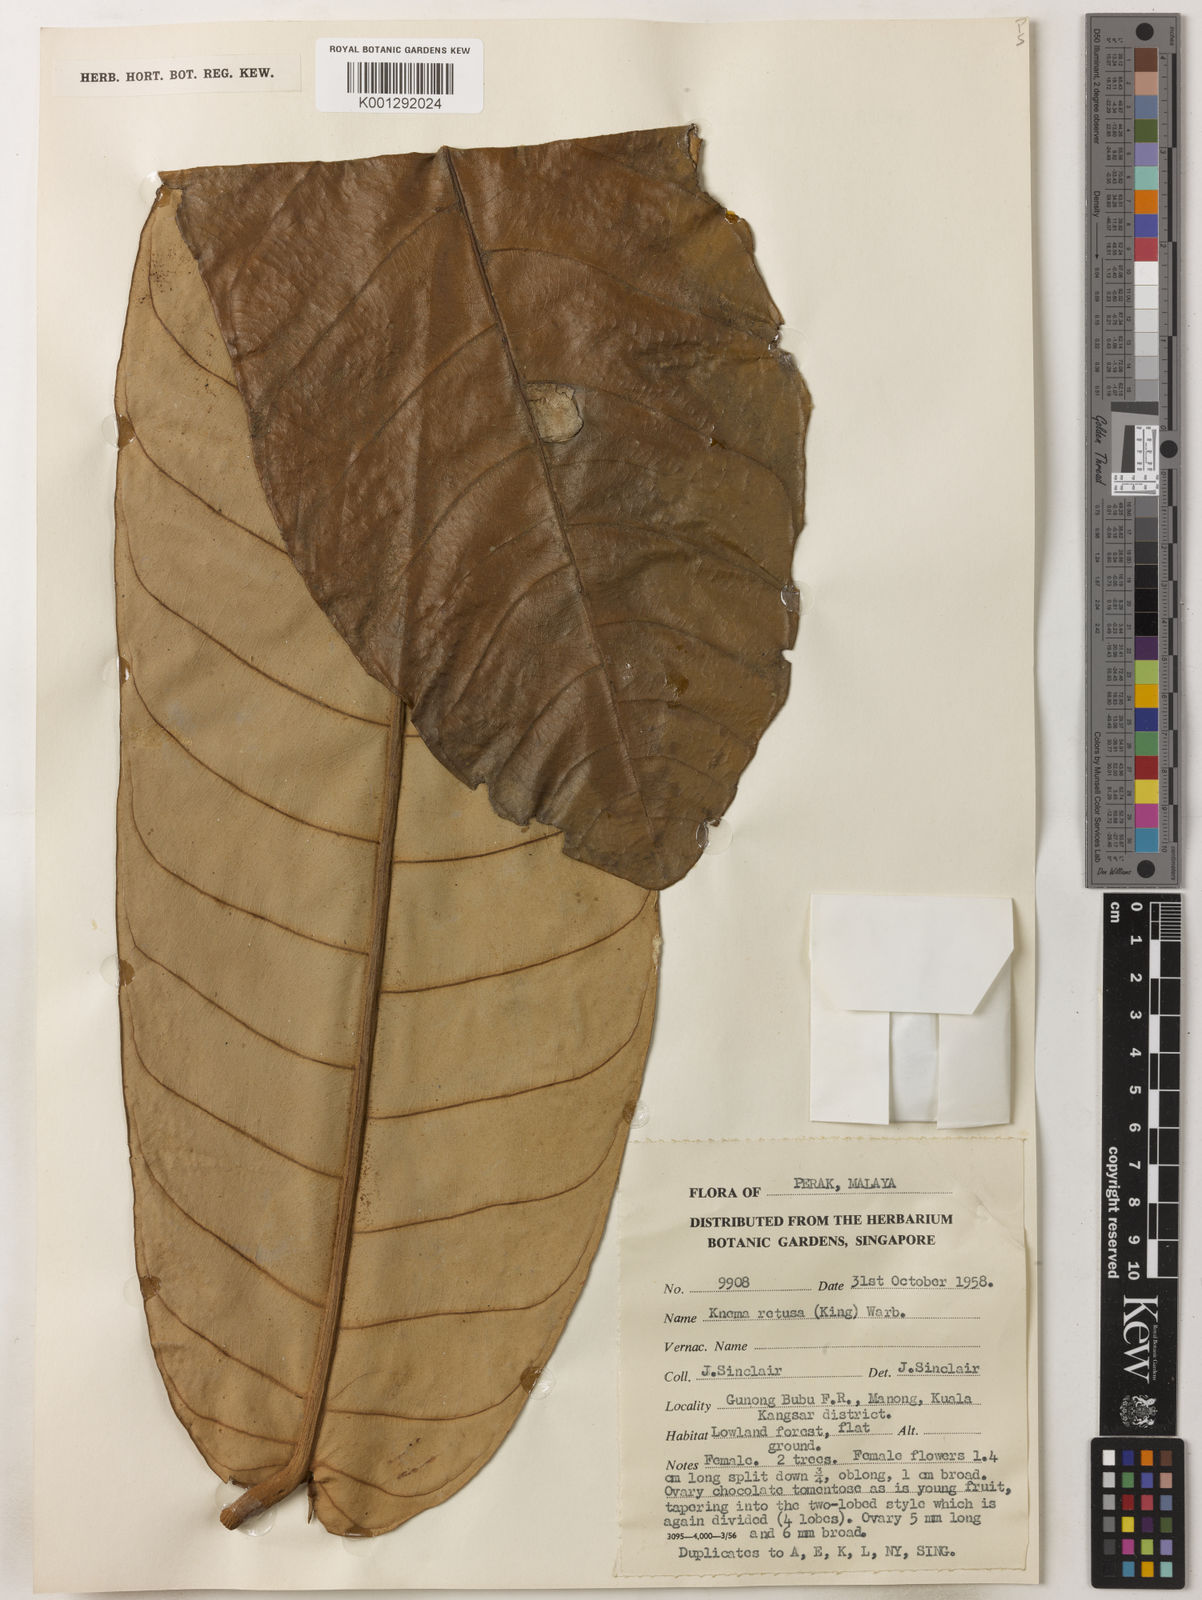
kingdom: Plantae
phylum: Tracheophyta
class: Magnoliopsida
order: Magnoliales
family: Myristicaceae
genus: Knema
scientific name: Knema retusa
